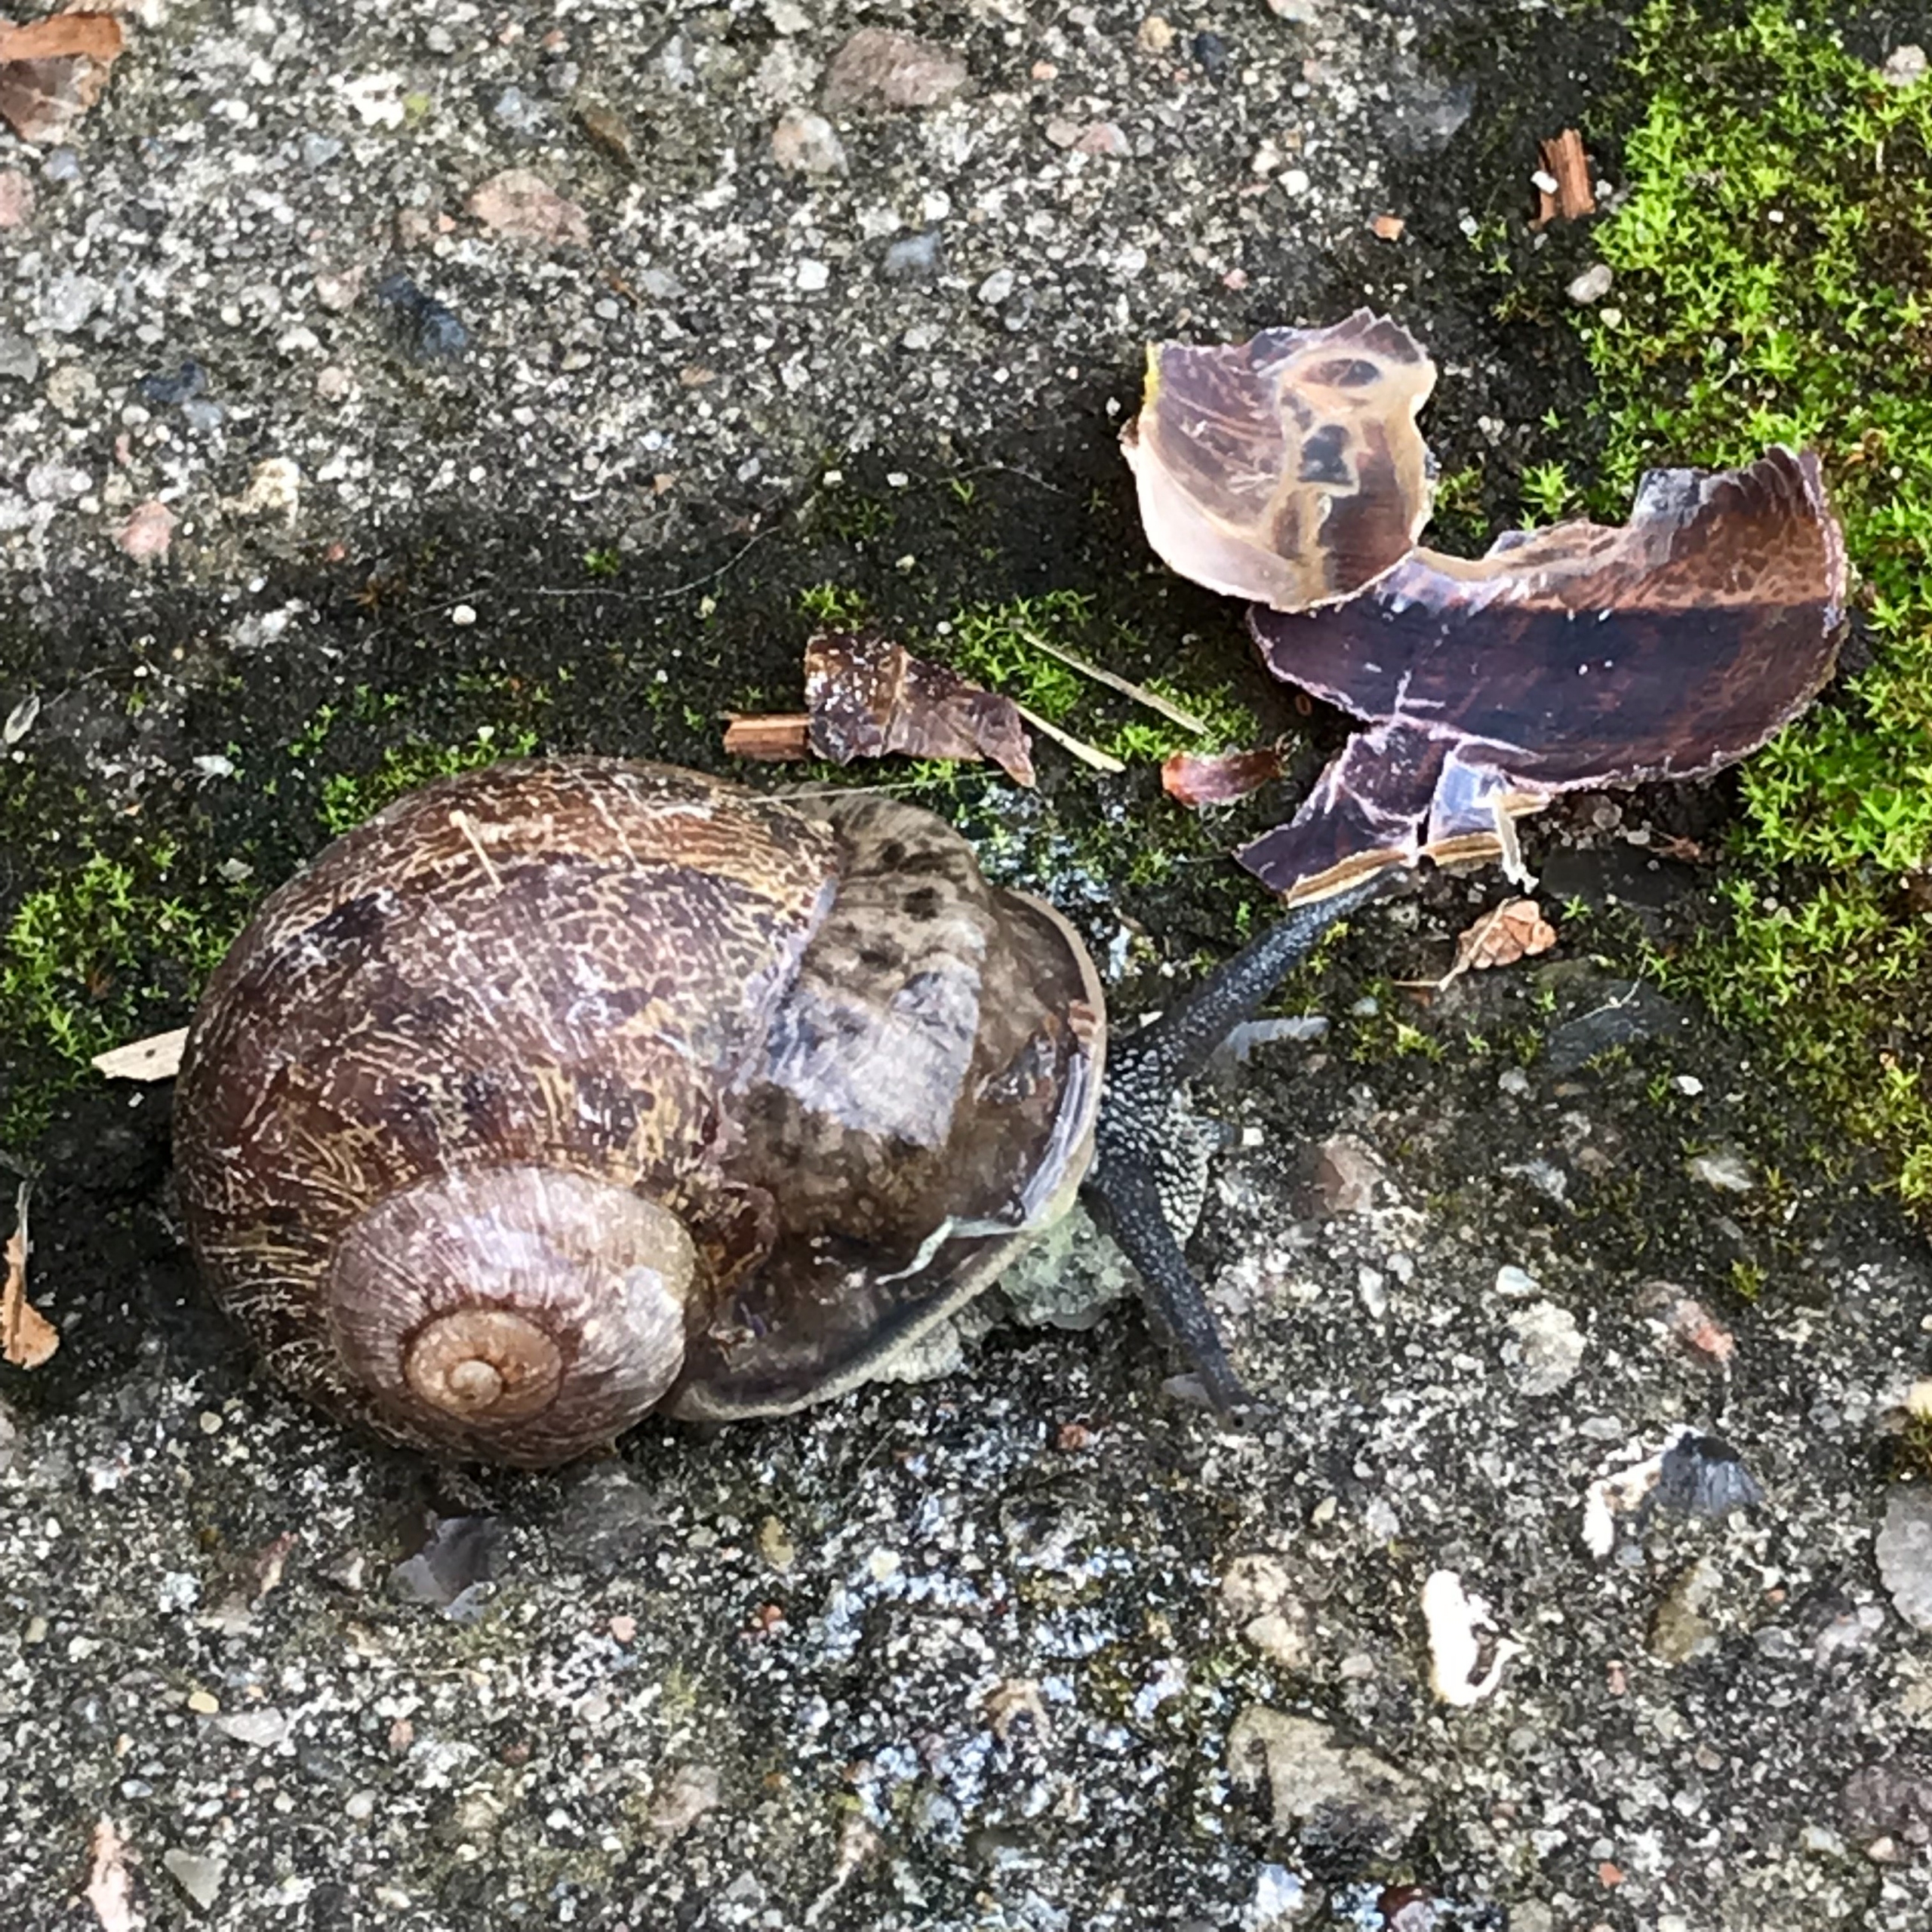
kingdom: Animalia
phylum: Mollusca
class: Gastropoda
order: Stylommatophora
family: Helicidae
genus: Cornu
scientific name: Cornu aspersum
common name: Plettet voldsnegl
